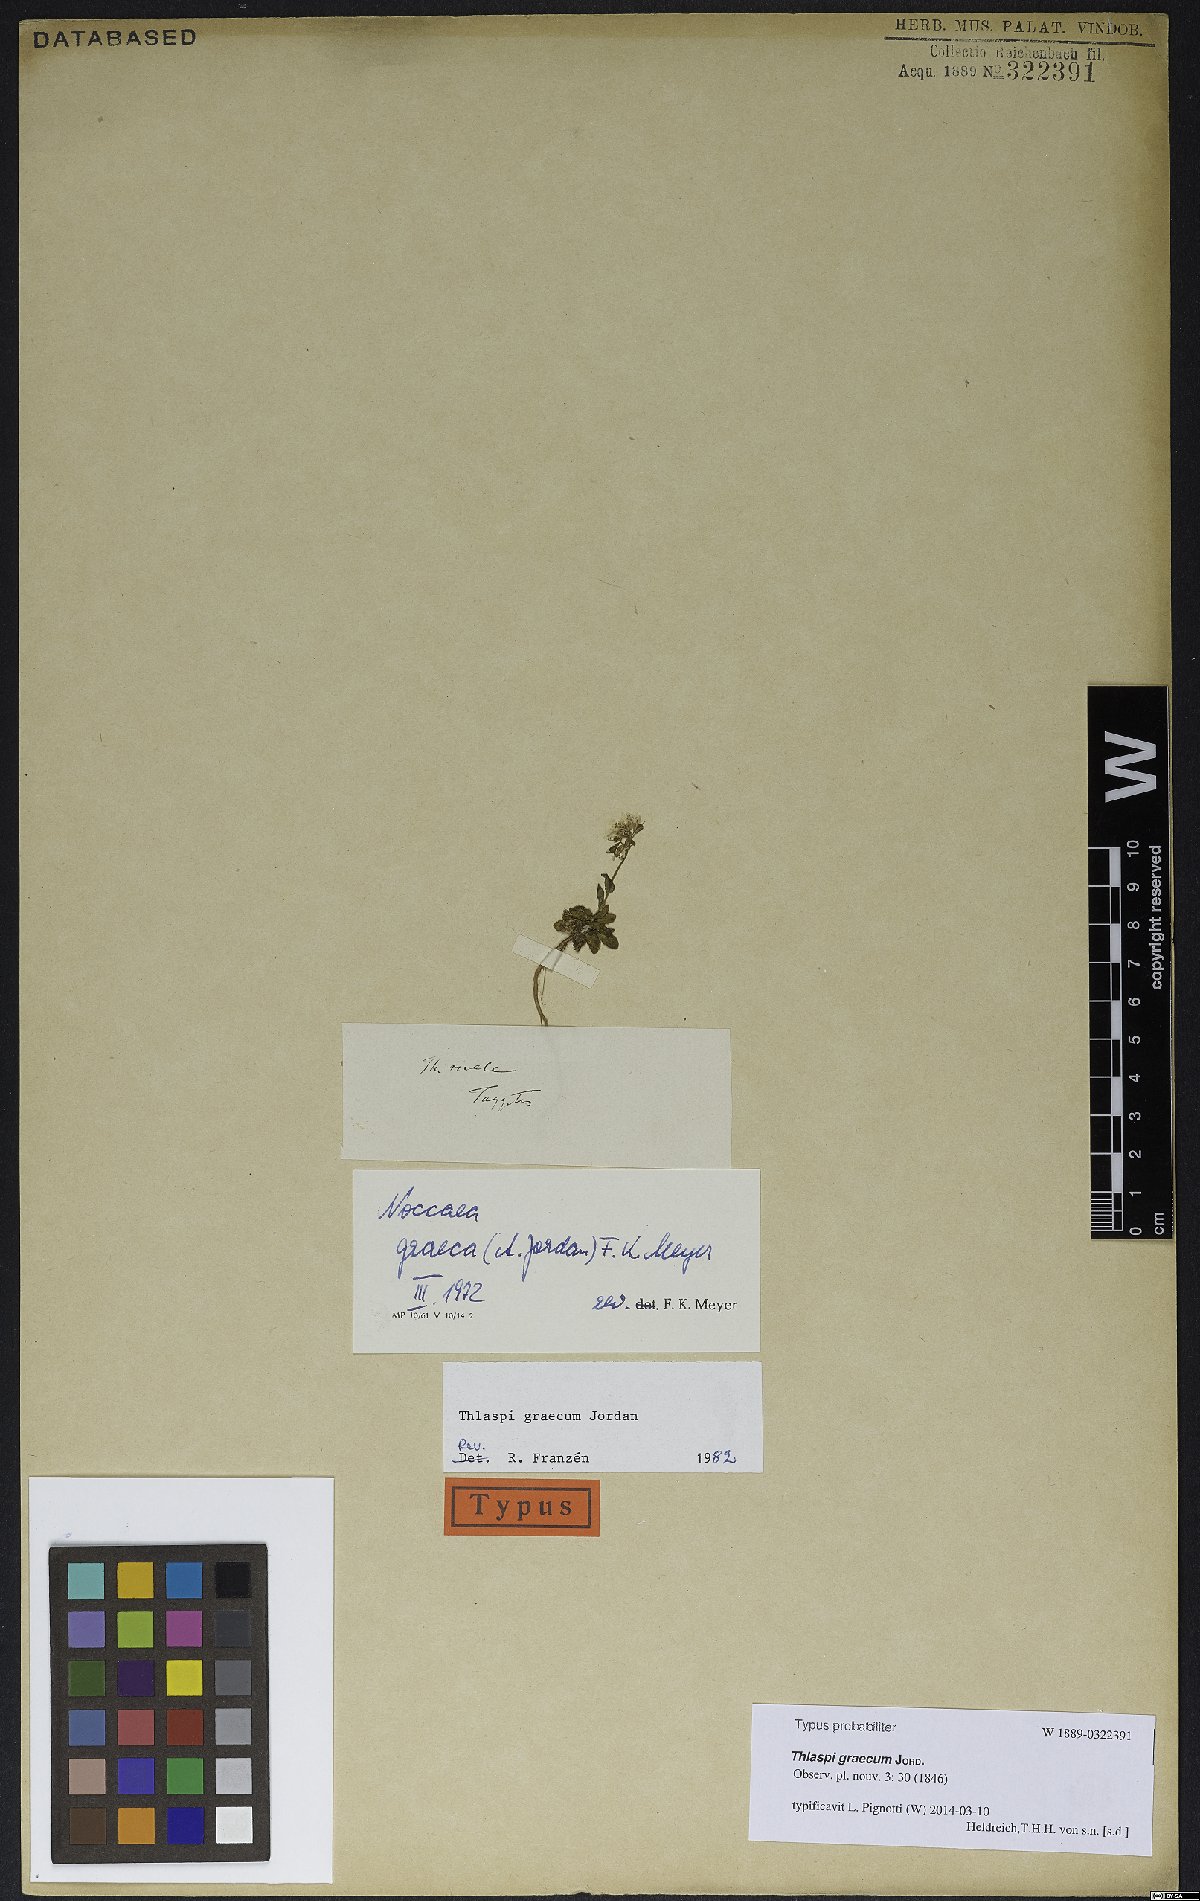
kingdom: Plantae
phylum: Tracheophyta
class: Magnoliopsida
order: Brassicales
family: Brassicaceae
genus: Noccaea
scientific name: Noccaea graeca
